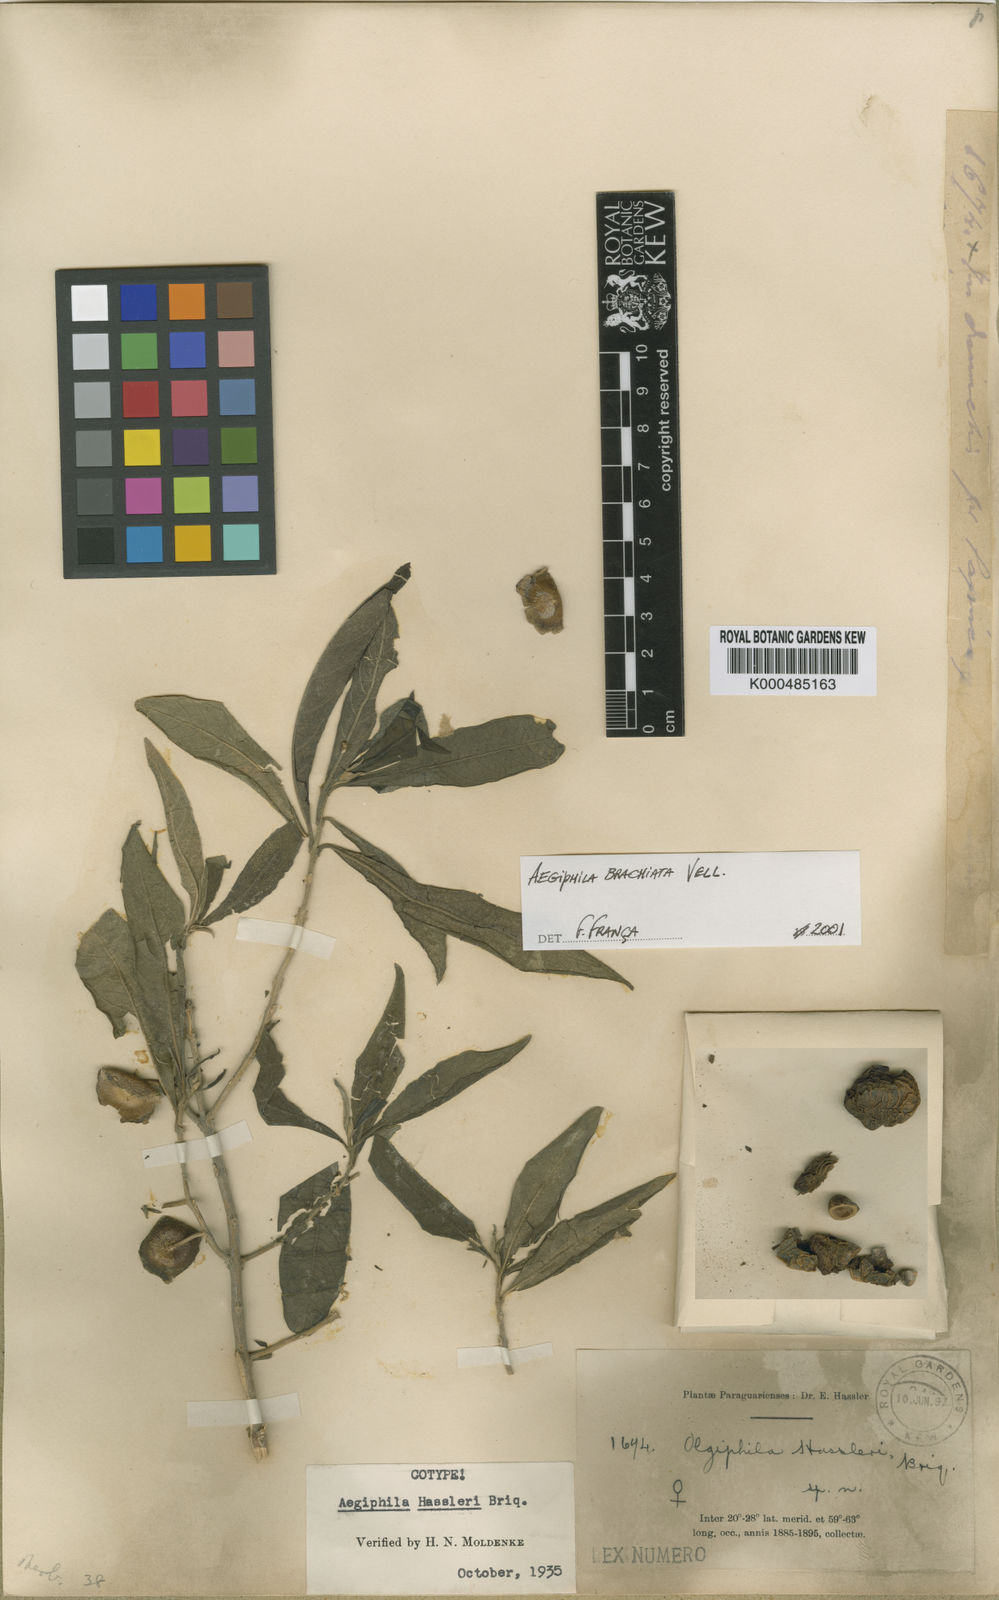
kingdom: Plantae
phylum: Tracheophyta
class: Magnoliopsida
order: Lamiales
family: Lamiaceae
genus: Aegiphila
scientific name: Aegiphila brachiata
